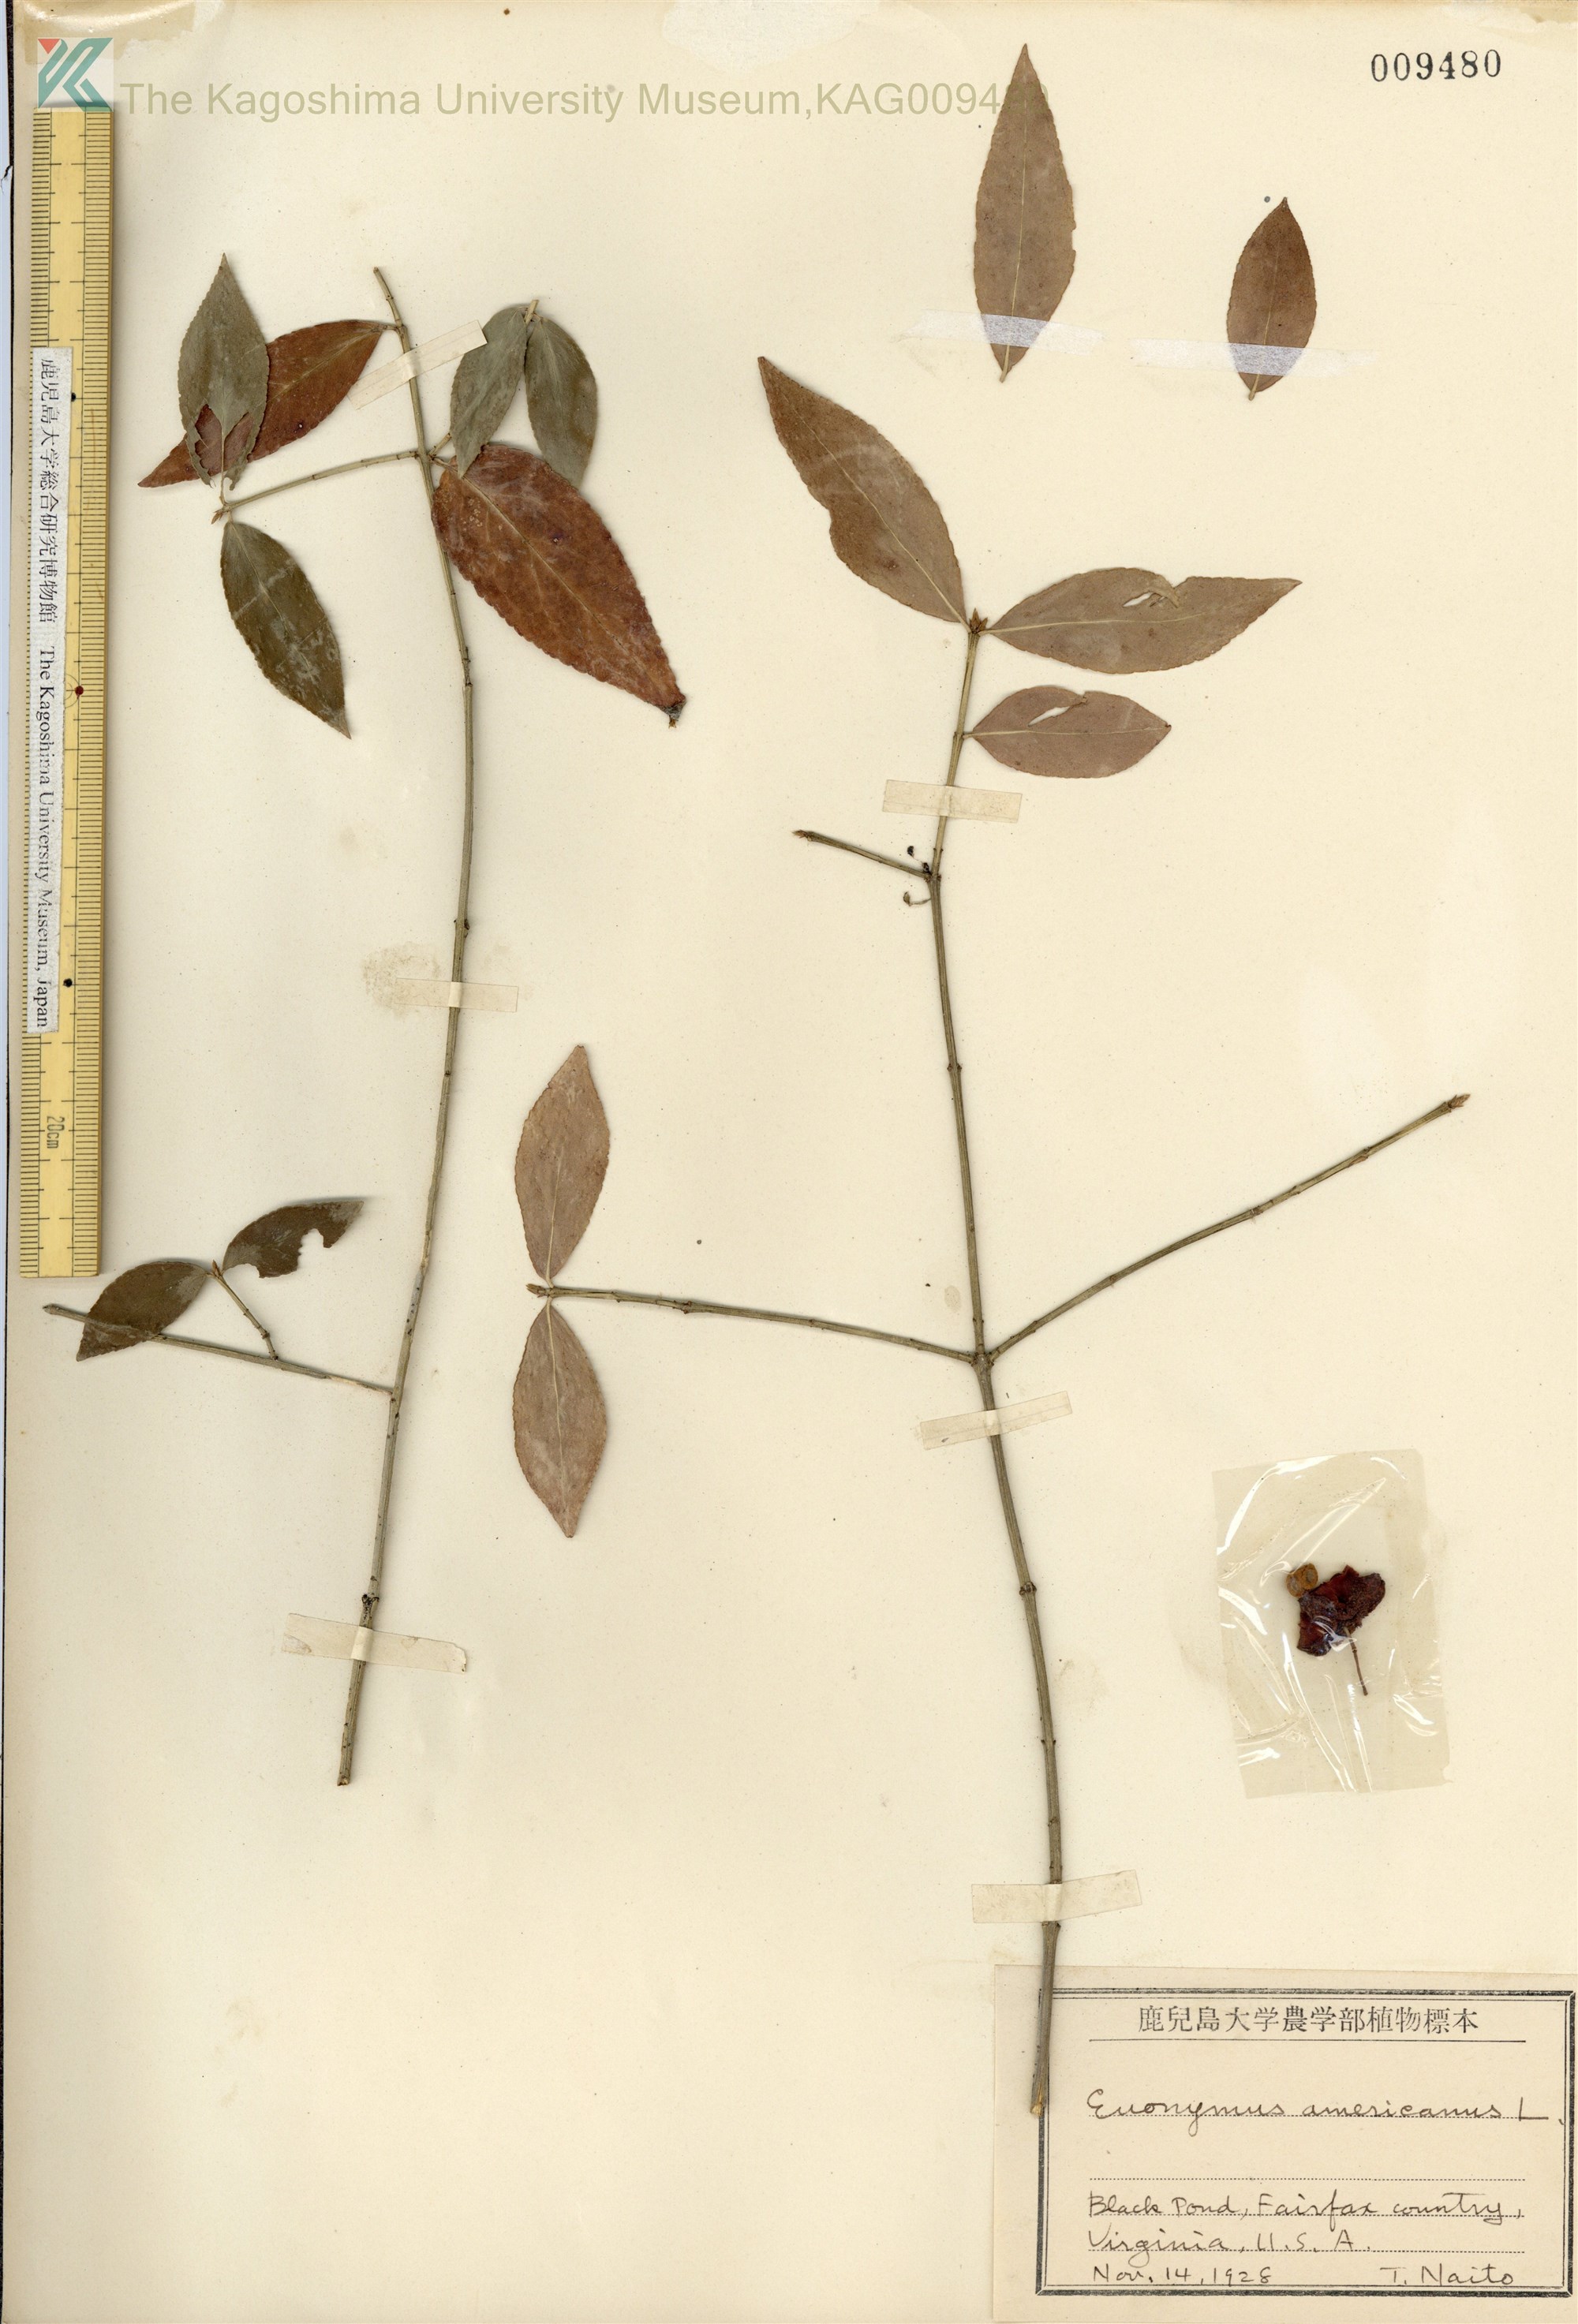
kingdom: Plantae
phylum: Tracheophyta
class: Magnoliopsida
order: Celastrales
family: Celastraceae
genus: Euonymus
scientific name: Euonymus americanus
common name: Bursting-heart
